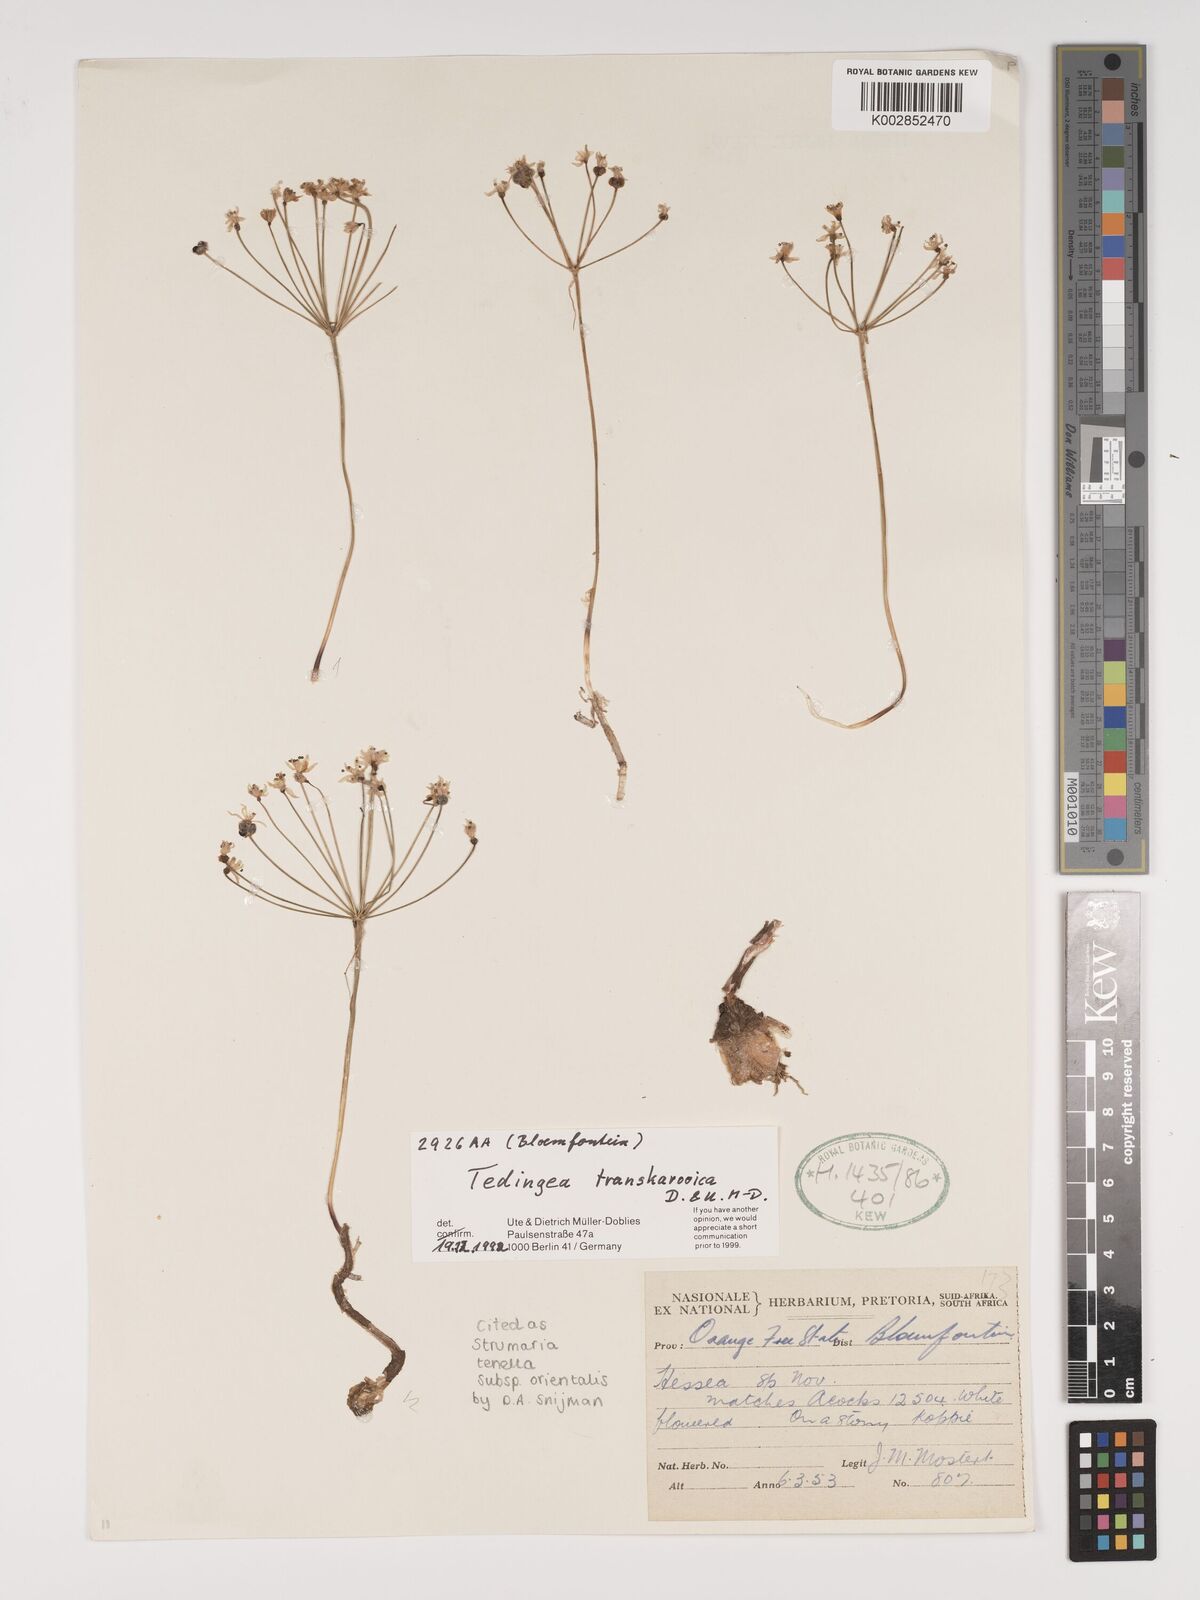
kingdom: Plantae
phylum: Tracheophyta
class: Liliopsida
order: Asparagales
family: Amaryllidaceae
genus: Strumaria
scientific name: Strumaria tenella
